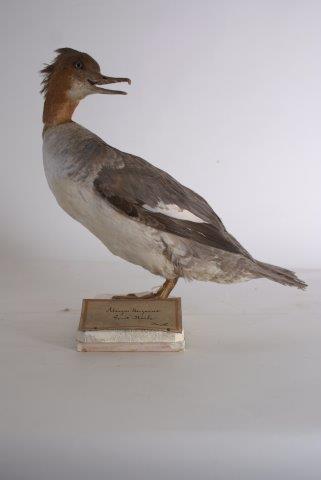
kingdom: Animalia
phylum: Chordata
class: Aves
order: Anseriformes
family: Anatidae
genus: Mergus
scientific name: Mergus merganser
